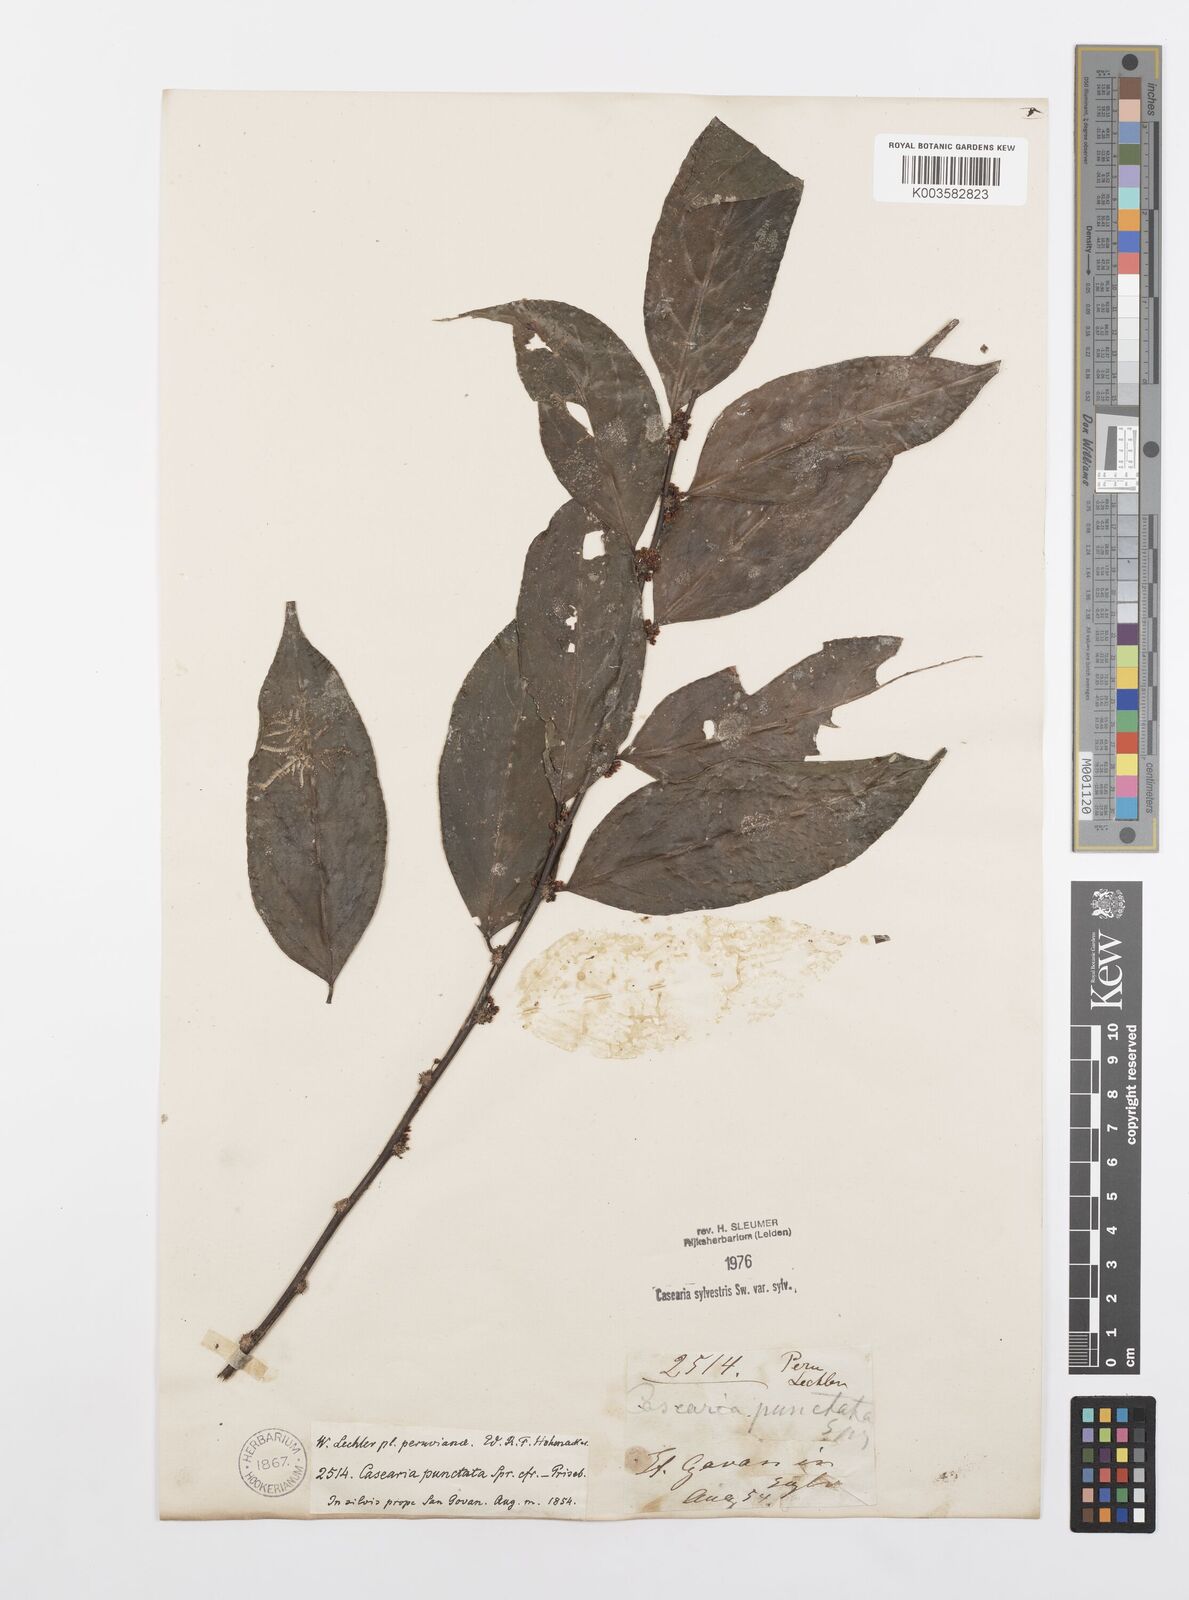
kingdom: Plantae
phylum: Tracheophyta
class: Magnoliopsida
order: Malpighiales
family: Salicaceae
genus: Casearia
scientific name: Casearia sylvestris
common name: Wild sage
